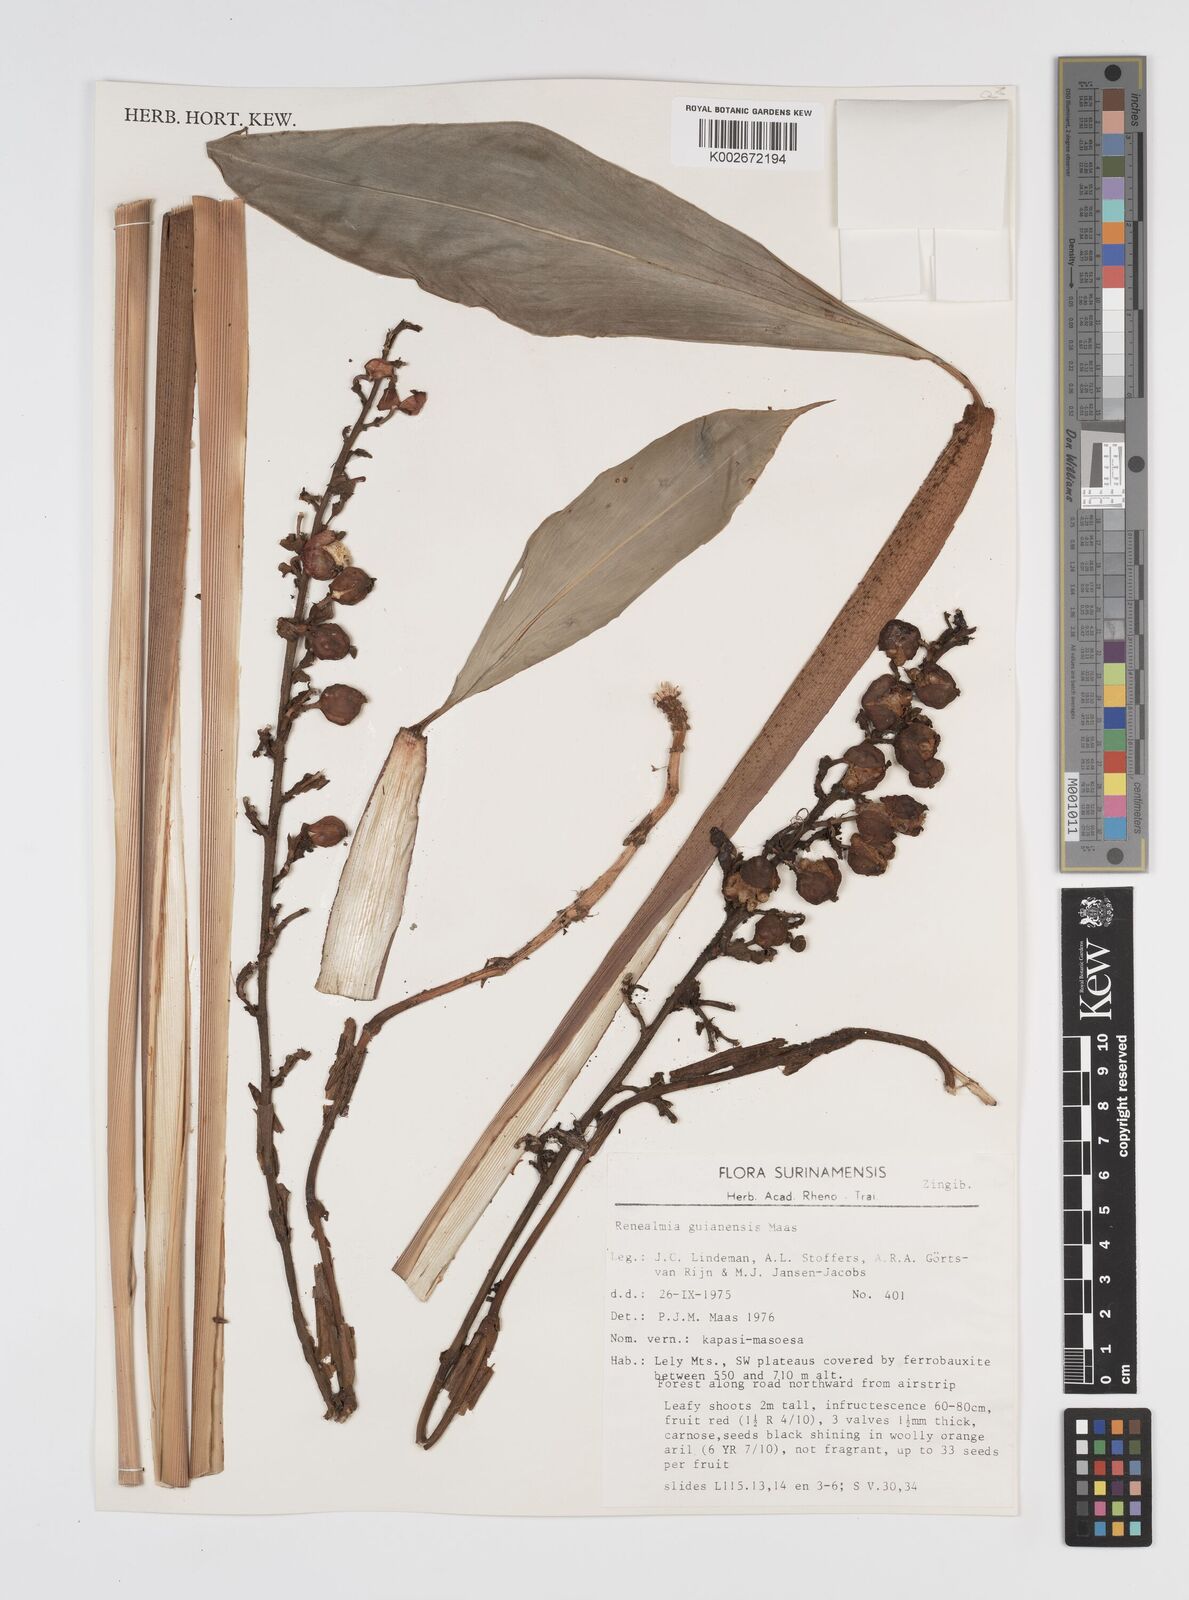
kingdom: Plantae
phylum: Tracheophyta
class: Liliopsida
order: Zingiberales
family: Zingiberaceae
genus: Renealmia
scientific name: Renealmia guianensis
